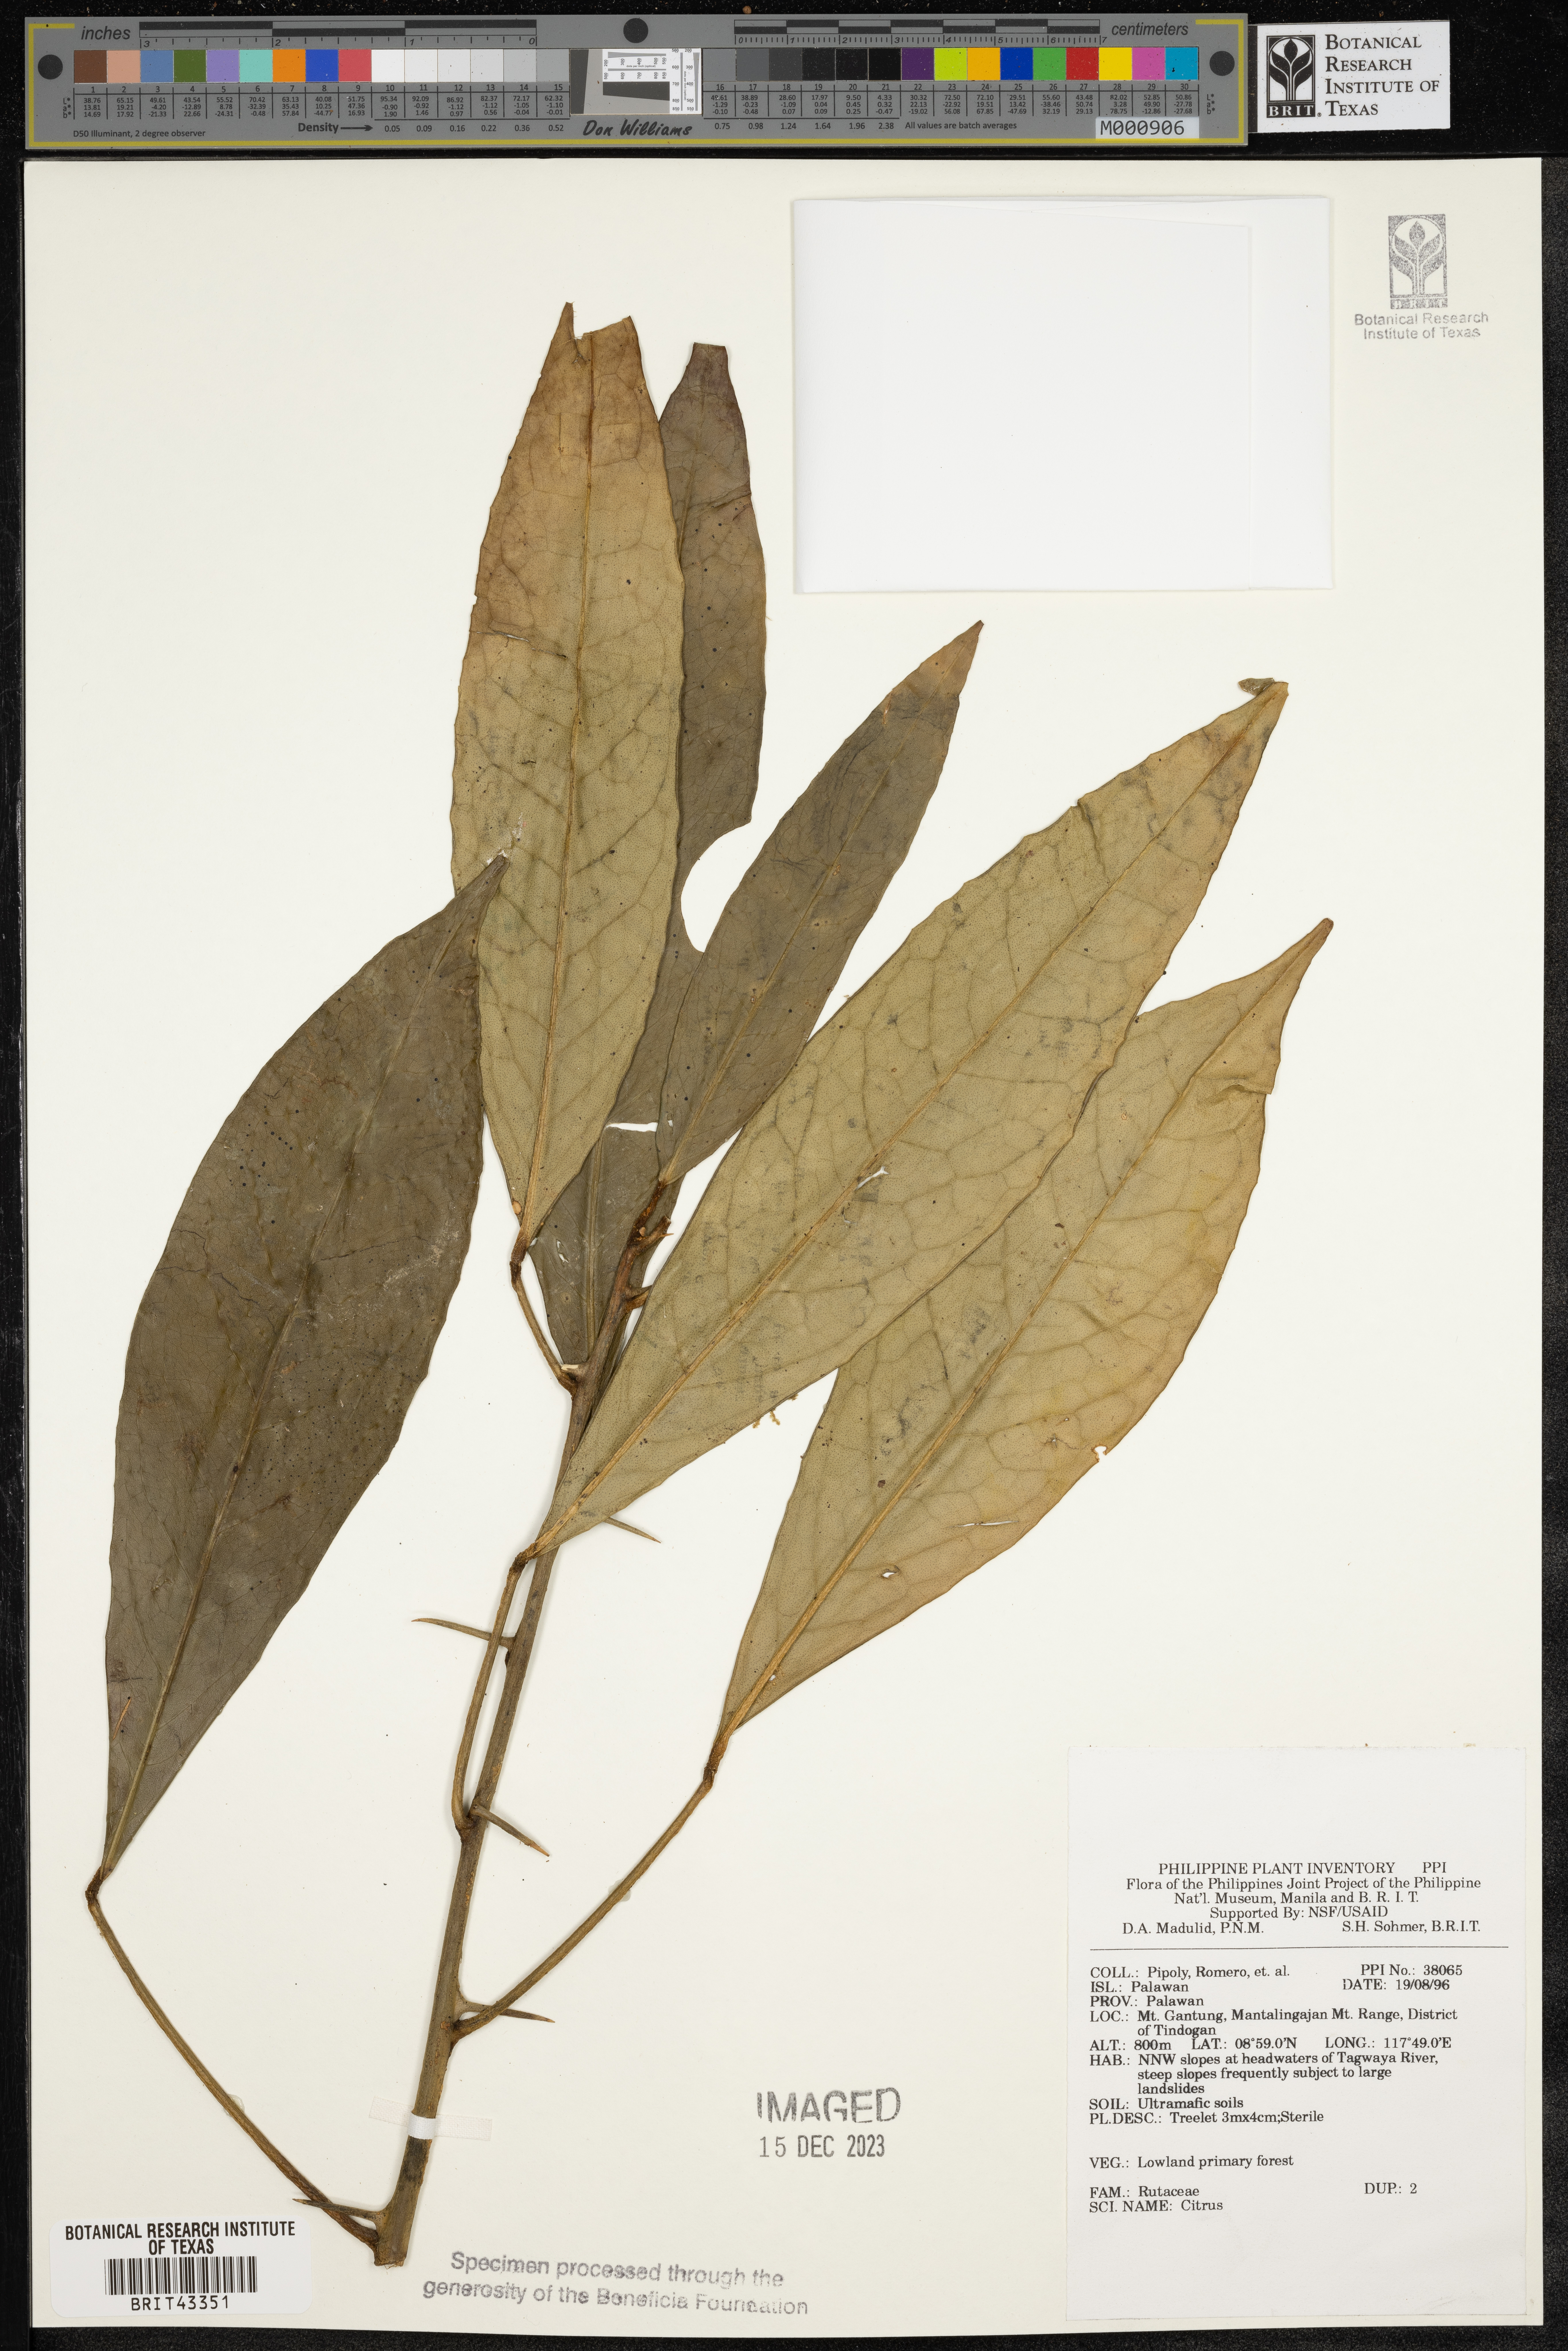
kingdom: Plantae
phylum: Tracheophyta
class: Magnoliopsida
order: Sapindales
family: Rutaceae
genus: Citrus
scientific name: Citrus
